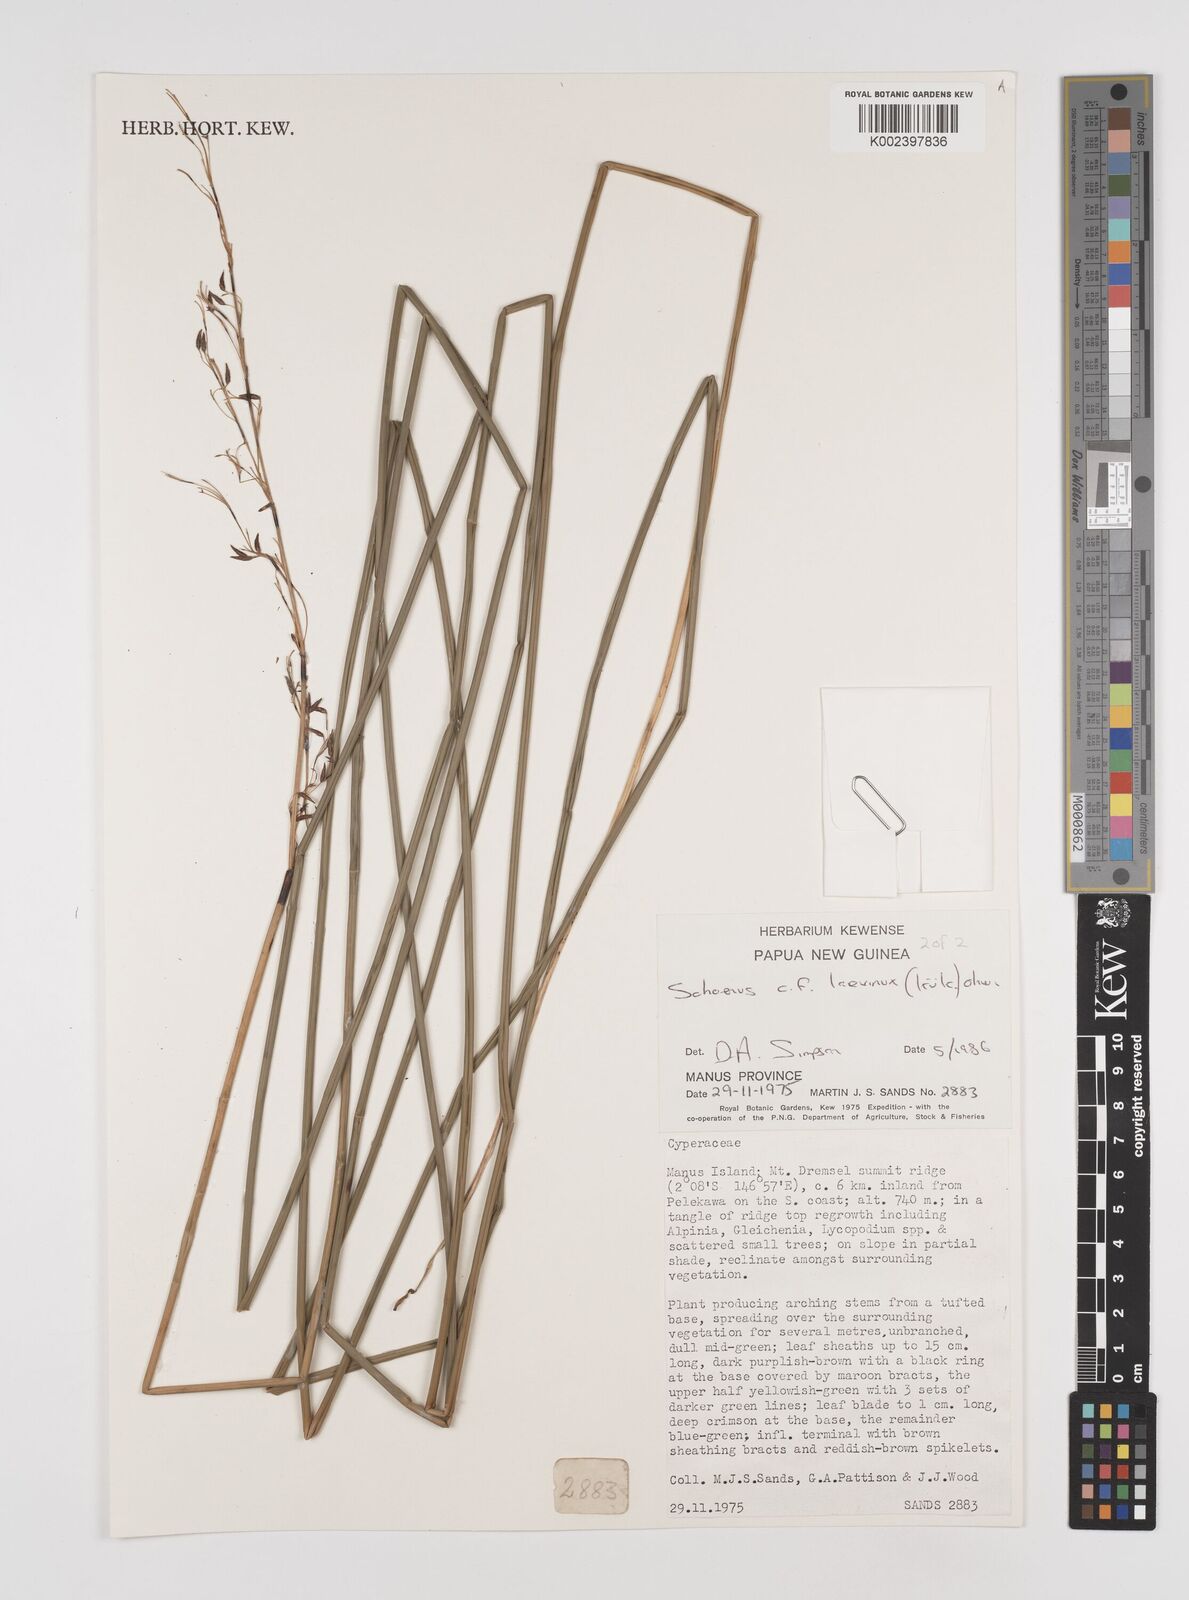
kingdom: Plantae
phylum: Tracheophyta
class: Liliopsida
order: Poales
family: Cyperaceae
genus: Schoenus
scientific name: Schoenus laevinux
